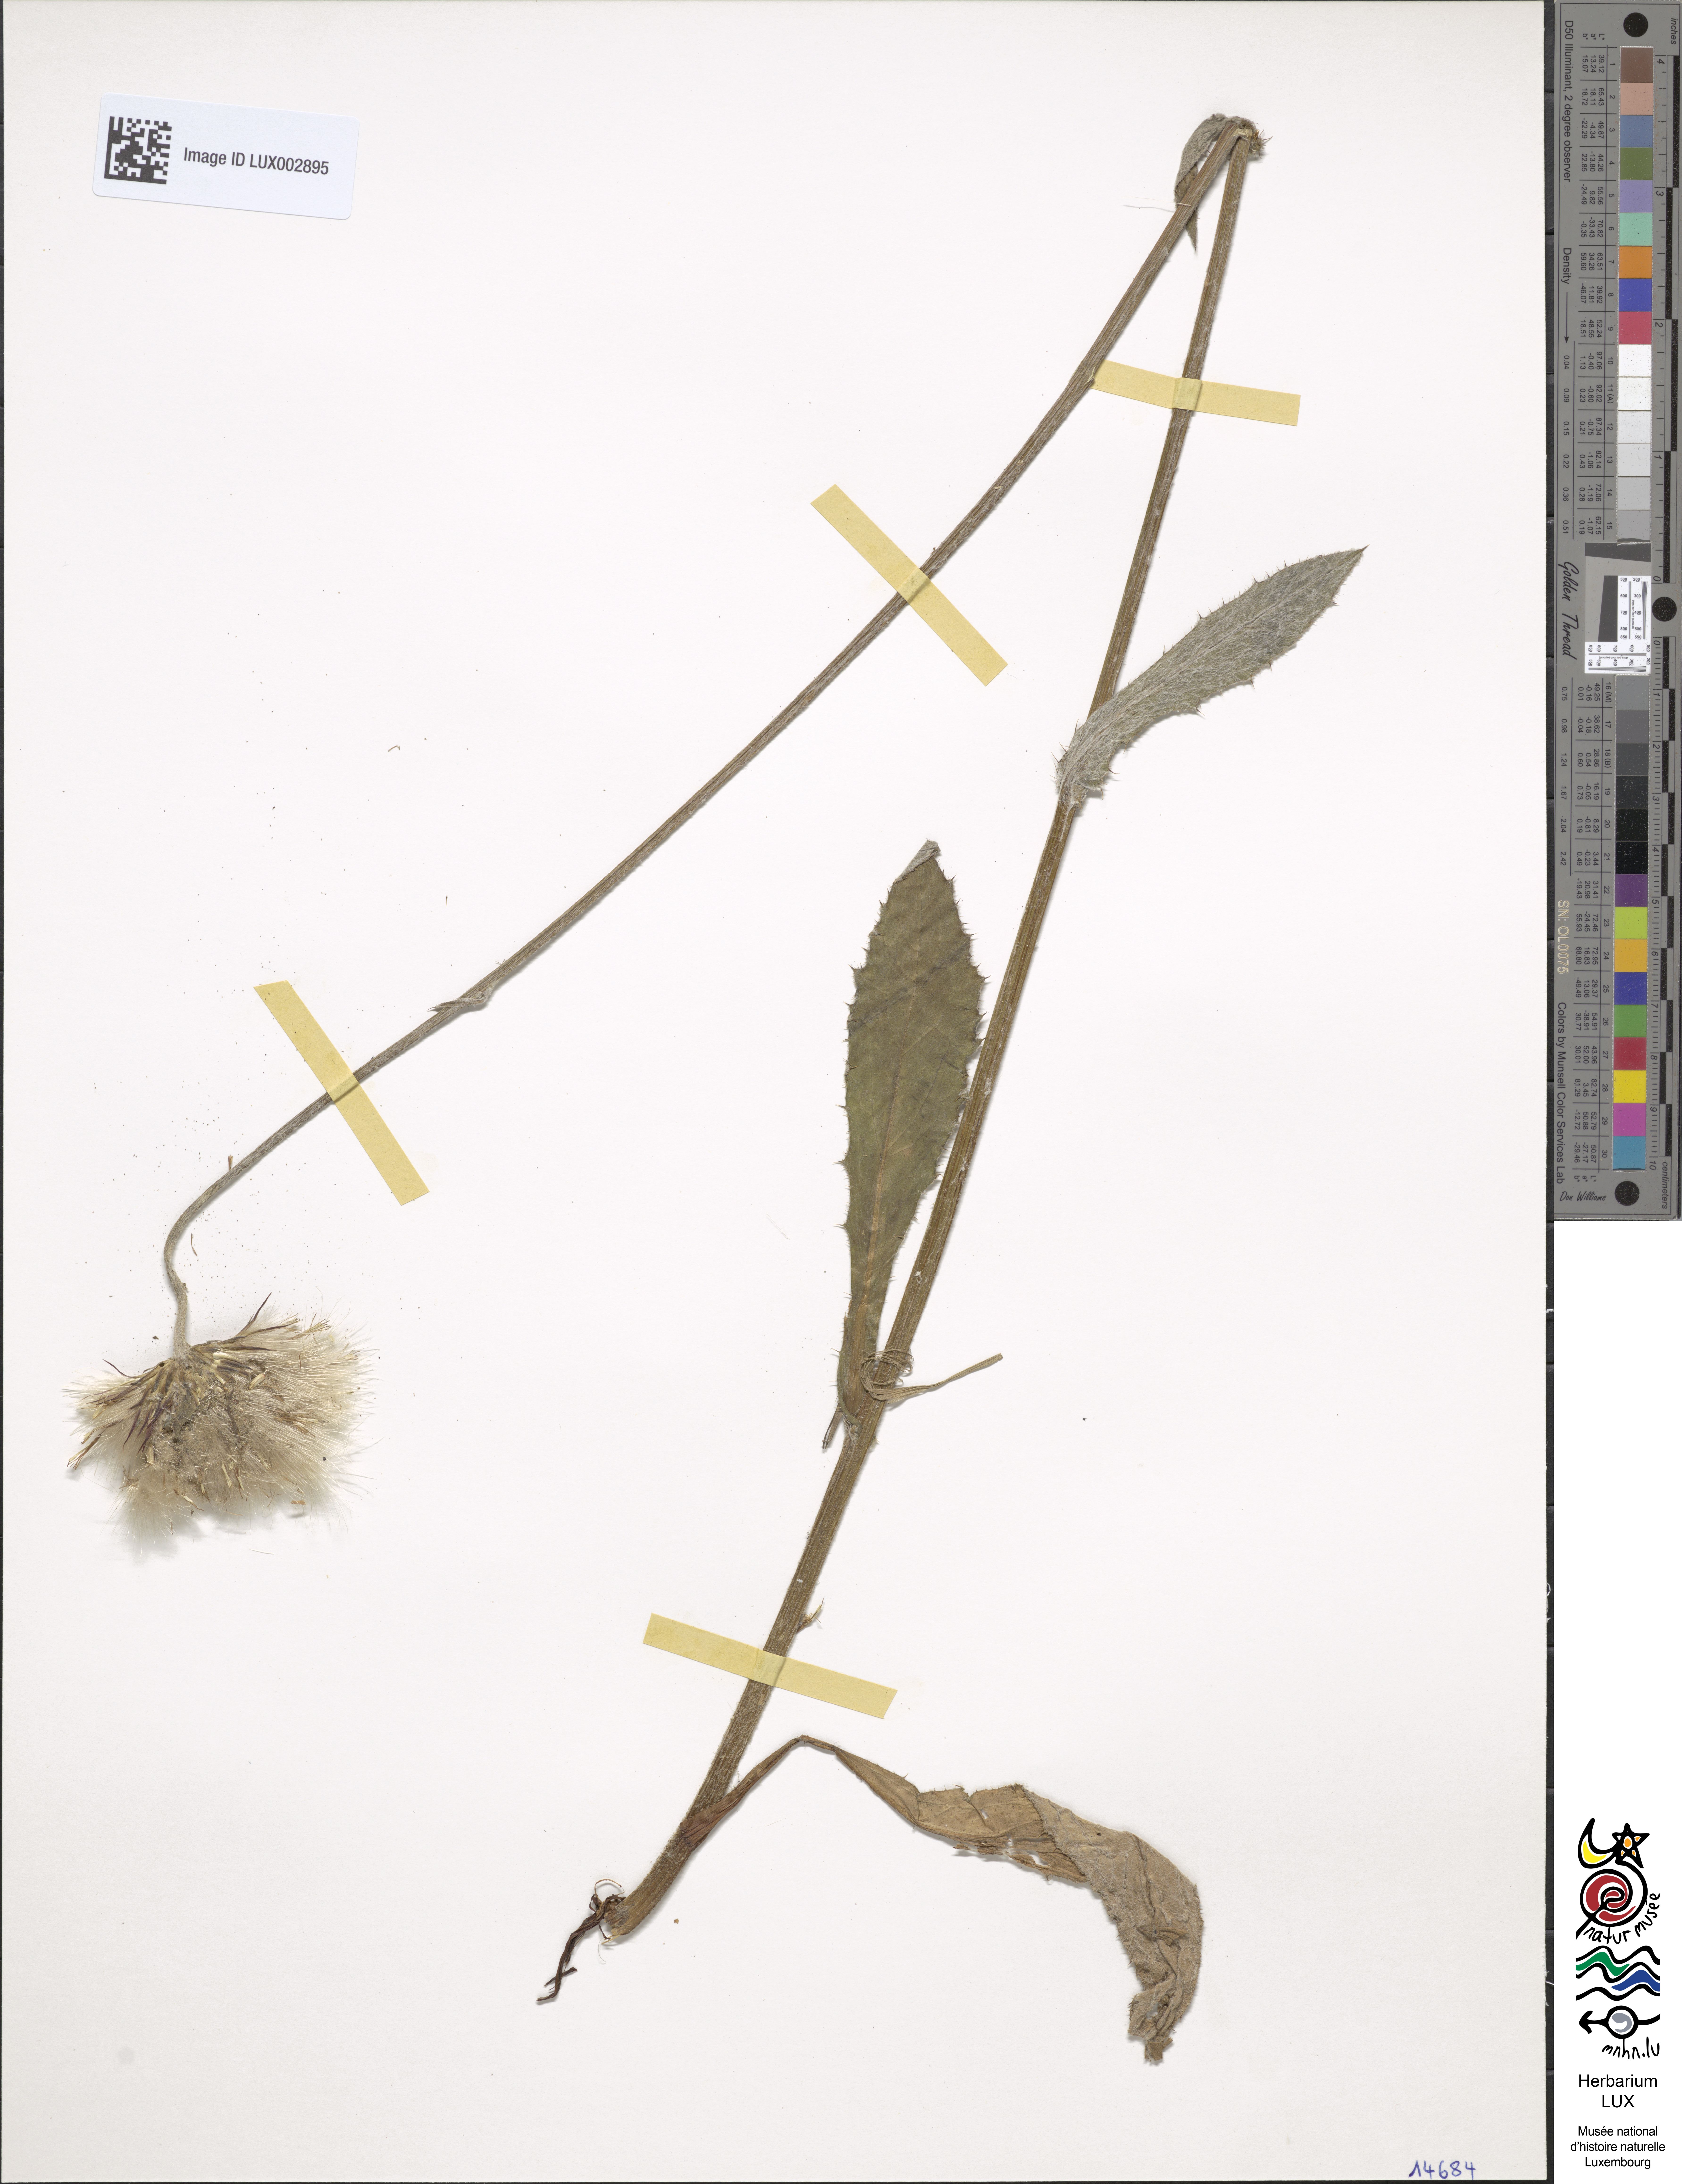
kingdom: Plantae
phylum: Tracheophyta
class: Magnoliopsida
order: Asterales
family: Asteraceae
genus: Cirsium
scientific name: Cirsium dissectum
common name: Meadow thistle
